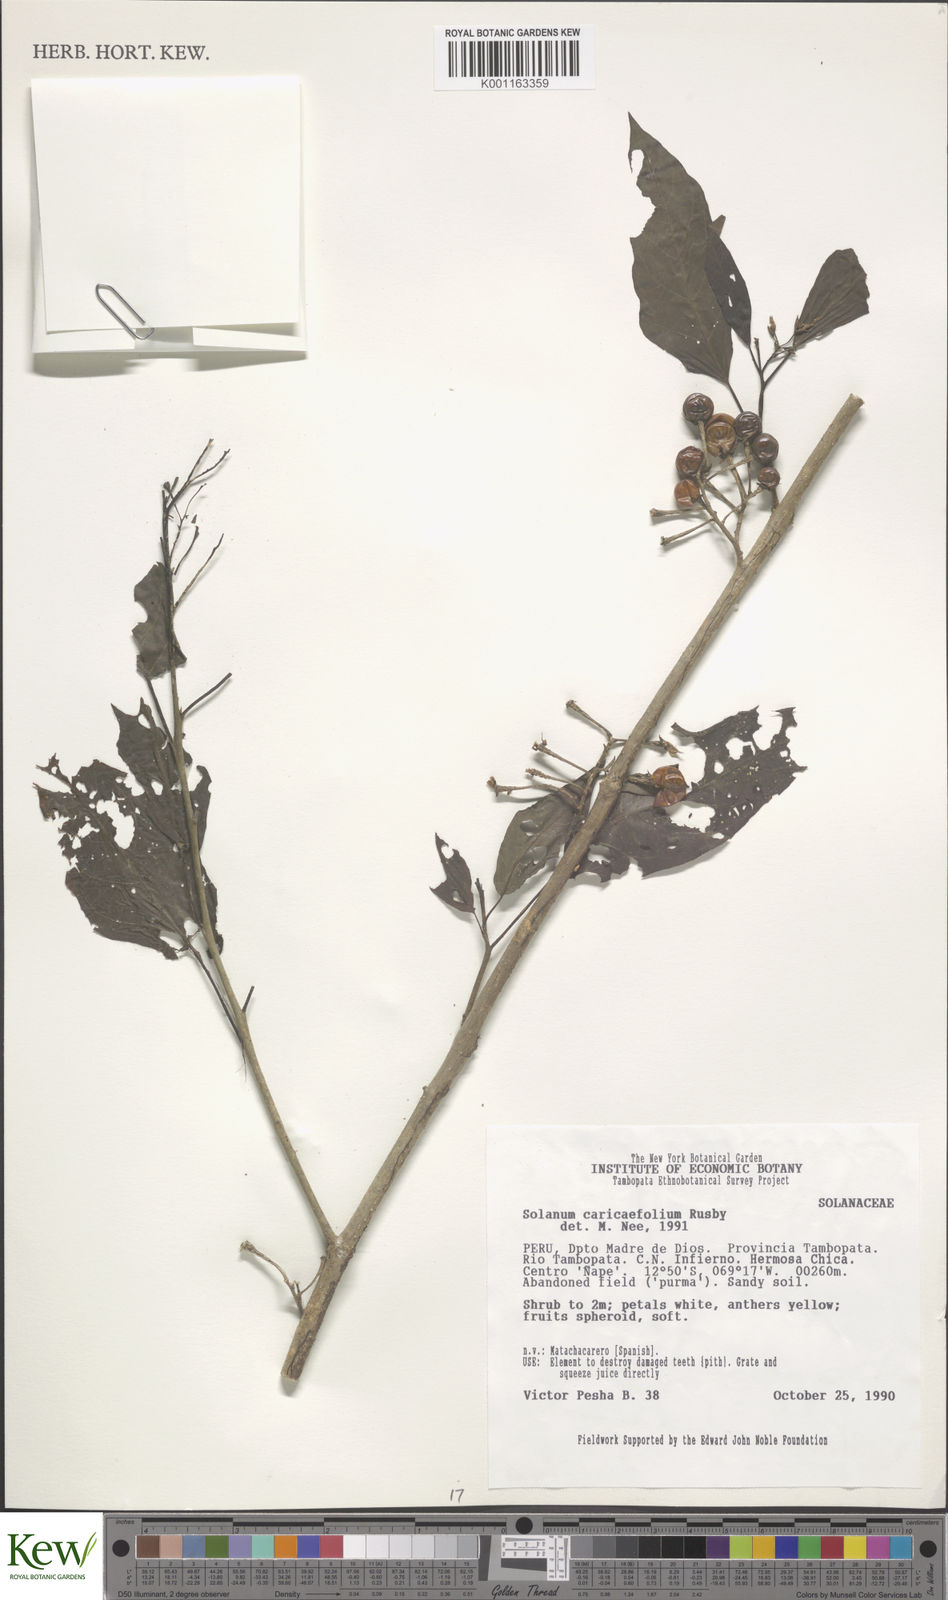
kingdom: Plantae
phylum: Tracheophyta
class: Magnoliopsida
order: Solanales
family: Solanaceae
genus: Solanum
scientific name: Solanum caricaefolium
